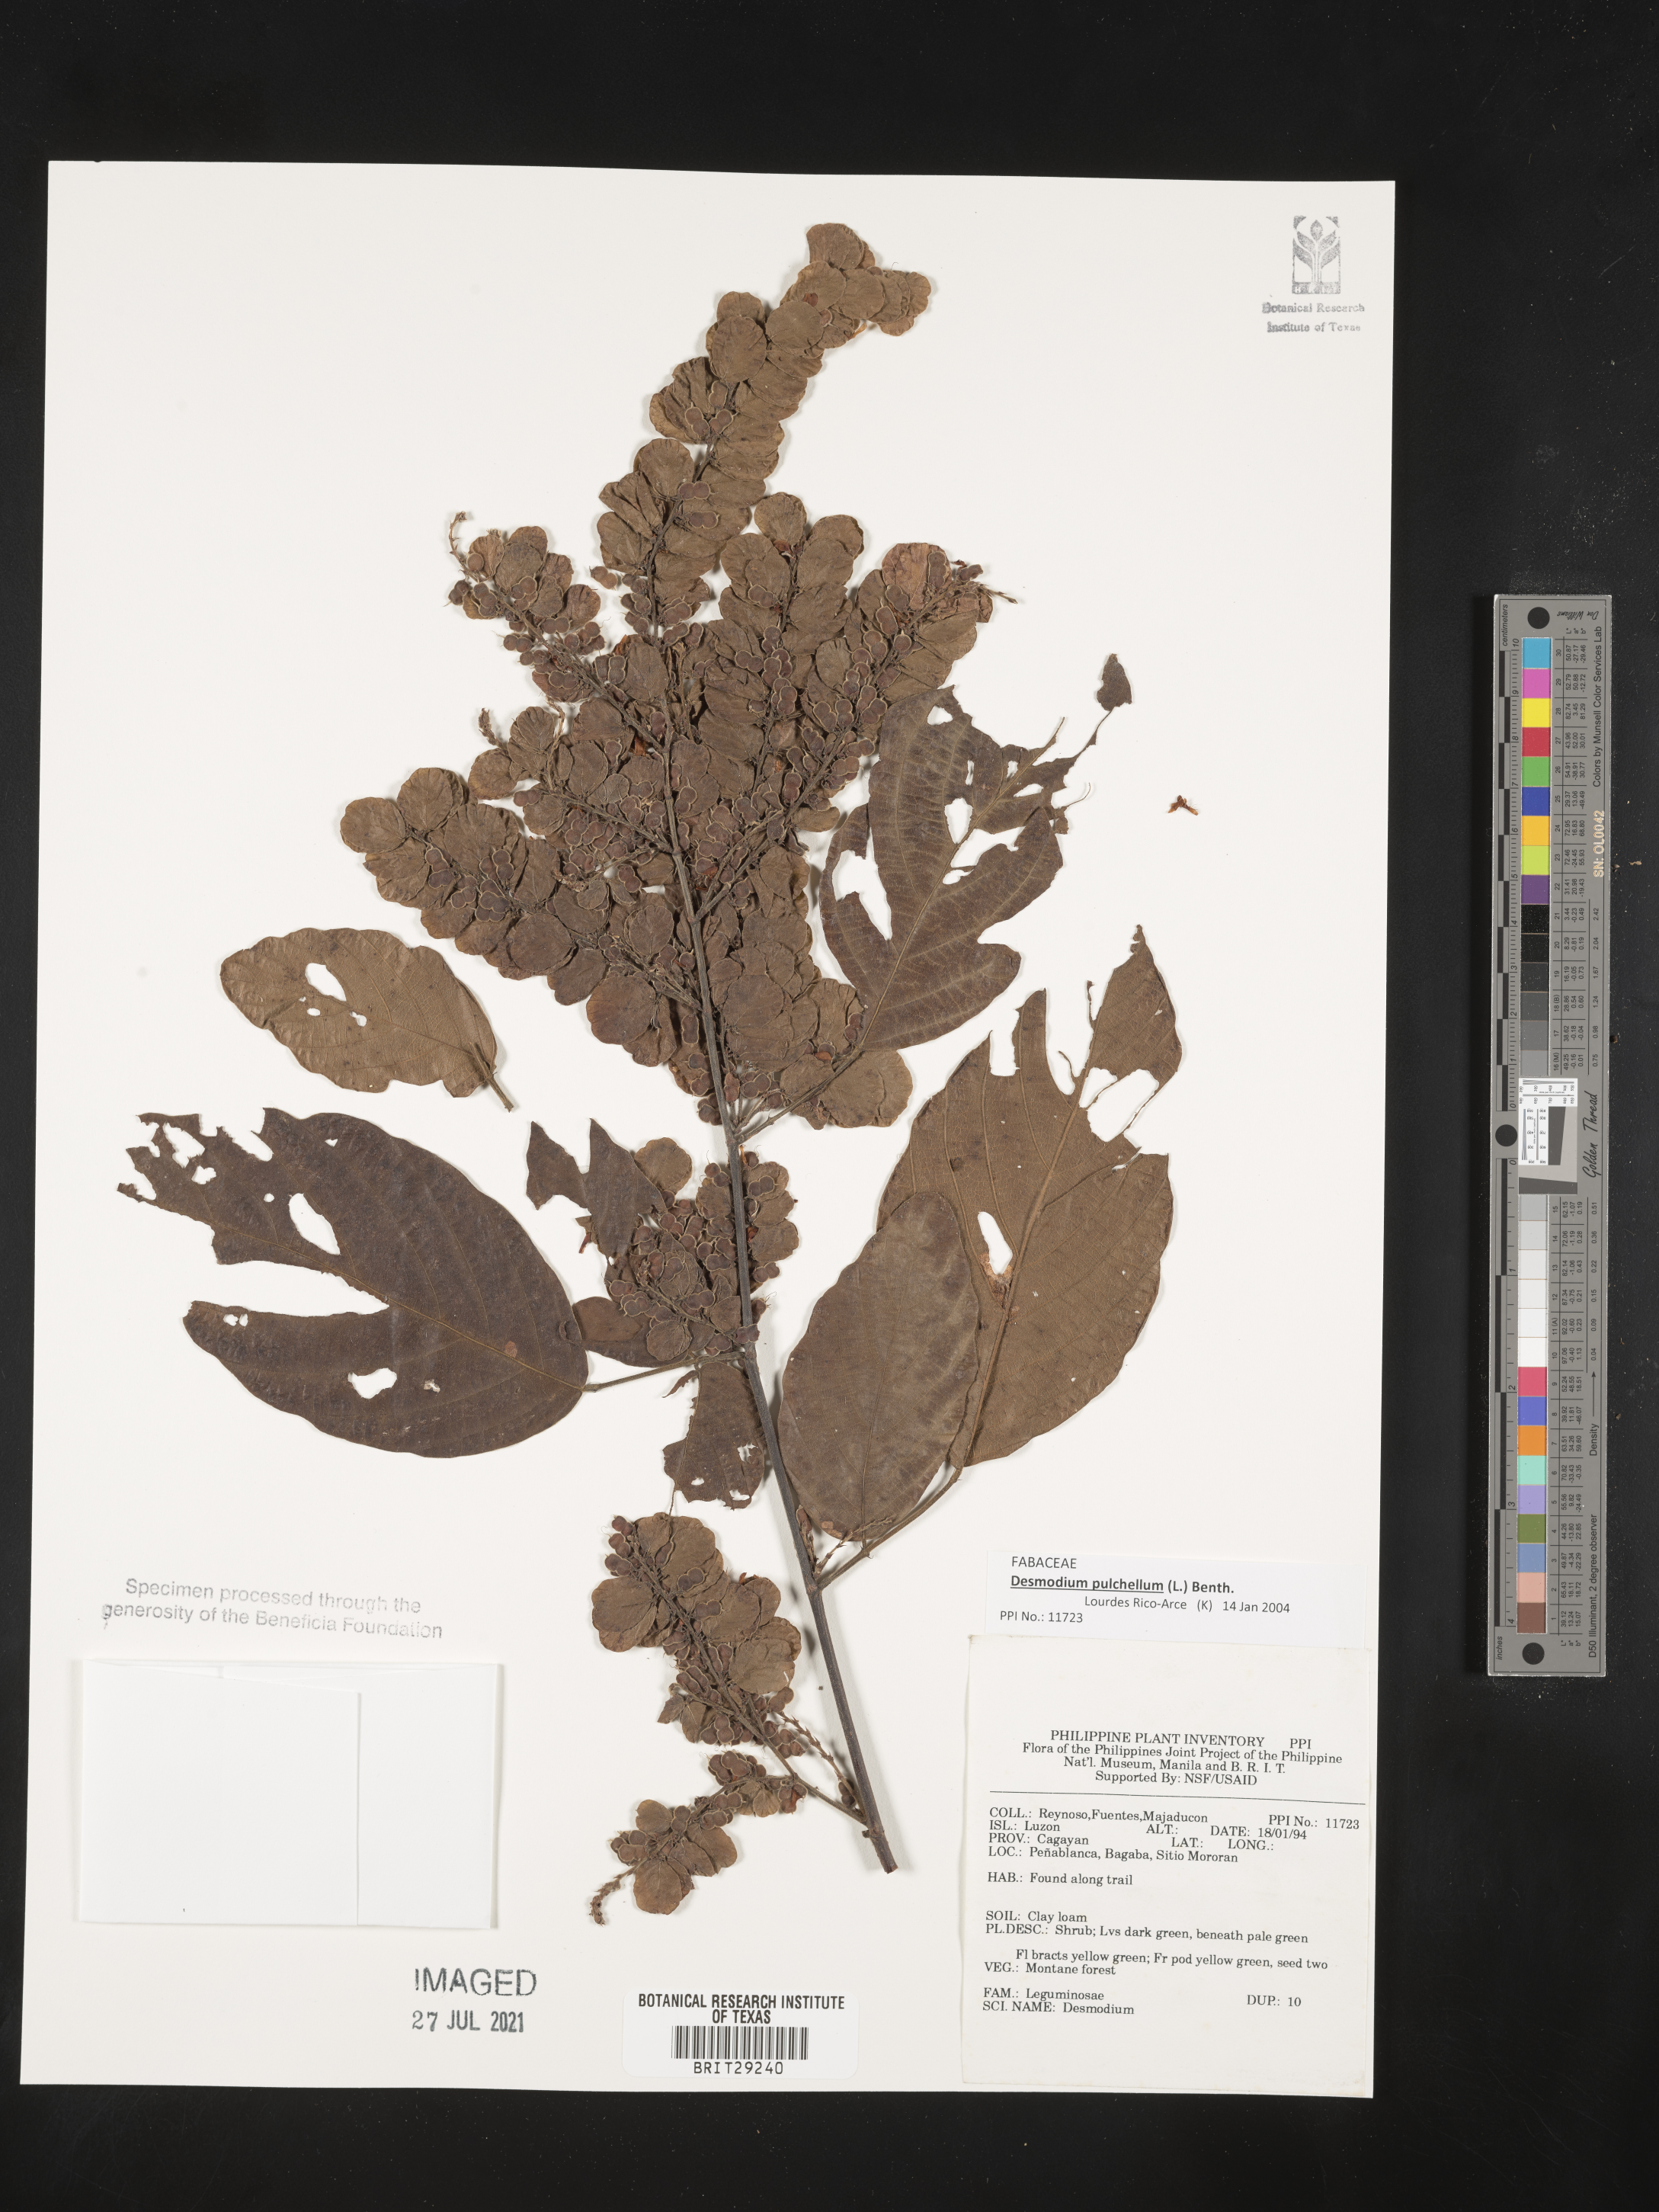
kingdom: Plantae
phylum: Tracheophyta
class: Magnoliopsida
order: Fabales
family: Fabaceae
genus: Phyllodium
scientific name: Phyllodium pulchellum
